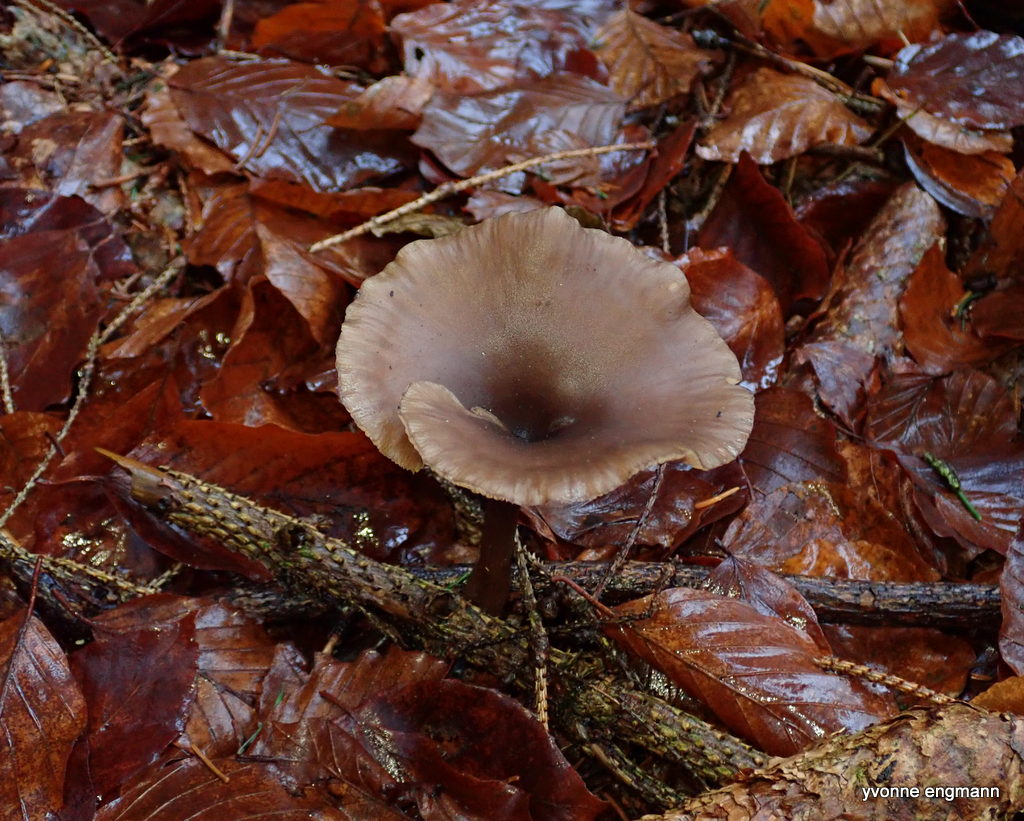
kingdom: Fungi
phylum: Basidiomycota
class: Agaricomycetes
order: Agaricales
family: Pseudoclitocybaceae
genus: Pseudoclitocybe
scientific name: Pseudoclitocybe cyathiformis
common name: almindelig bægertragthat
